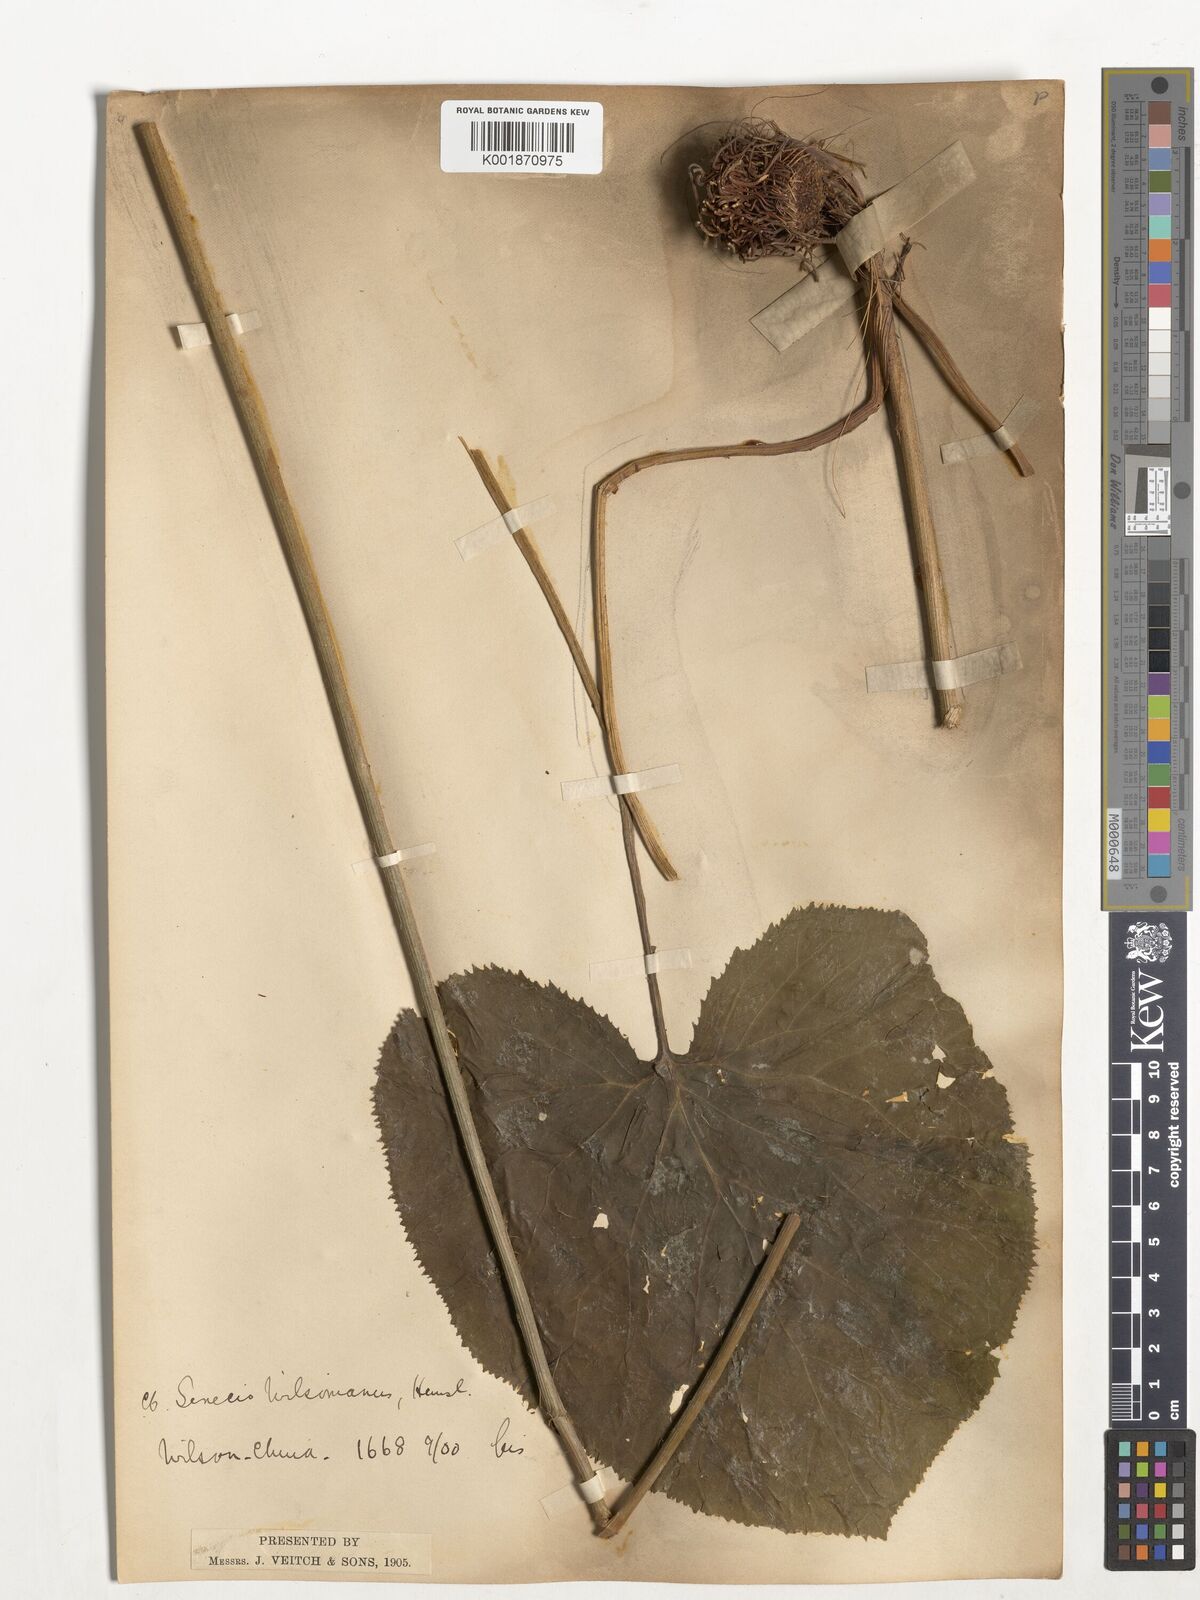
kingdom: Plantae
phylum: Tracheophyta
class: Magnoliopsida
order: Asterales
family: Asteraceae
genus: Ligularia
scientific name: Ligularia wilsoniana
